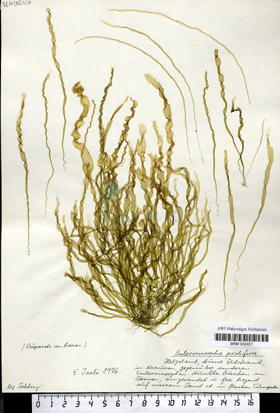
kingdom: Plantae
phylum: Chlorophyta
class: Ulvophyceae
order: Ulvales
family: Ulvaceae
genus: Ulva
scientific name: Ulva prolifera
